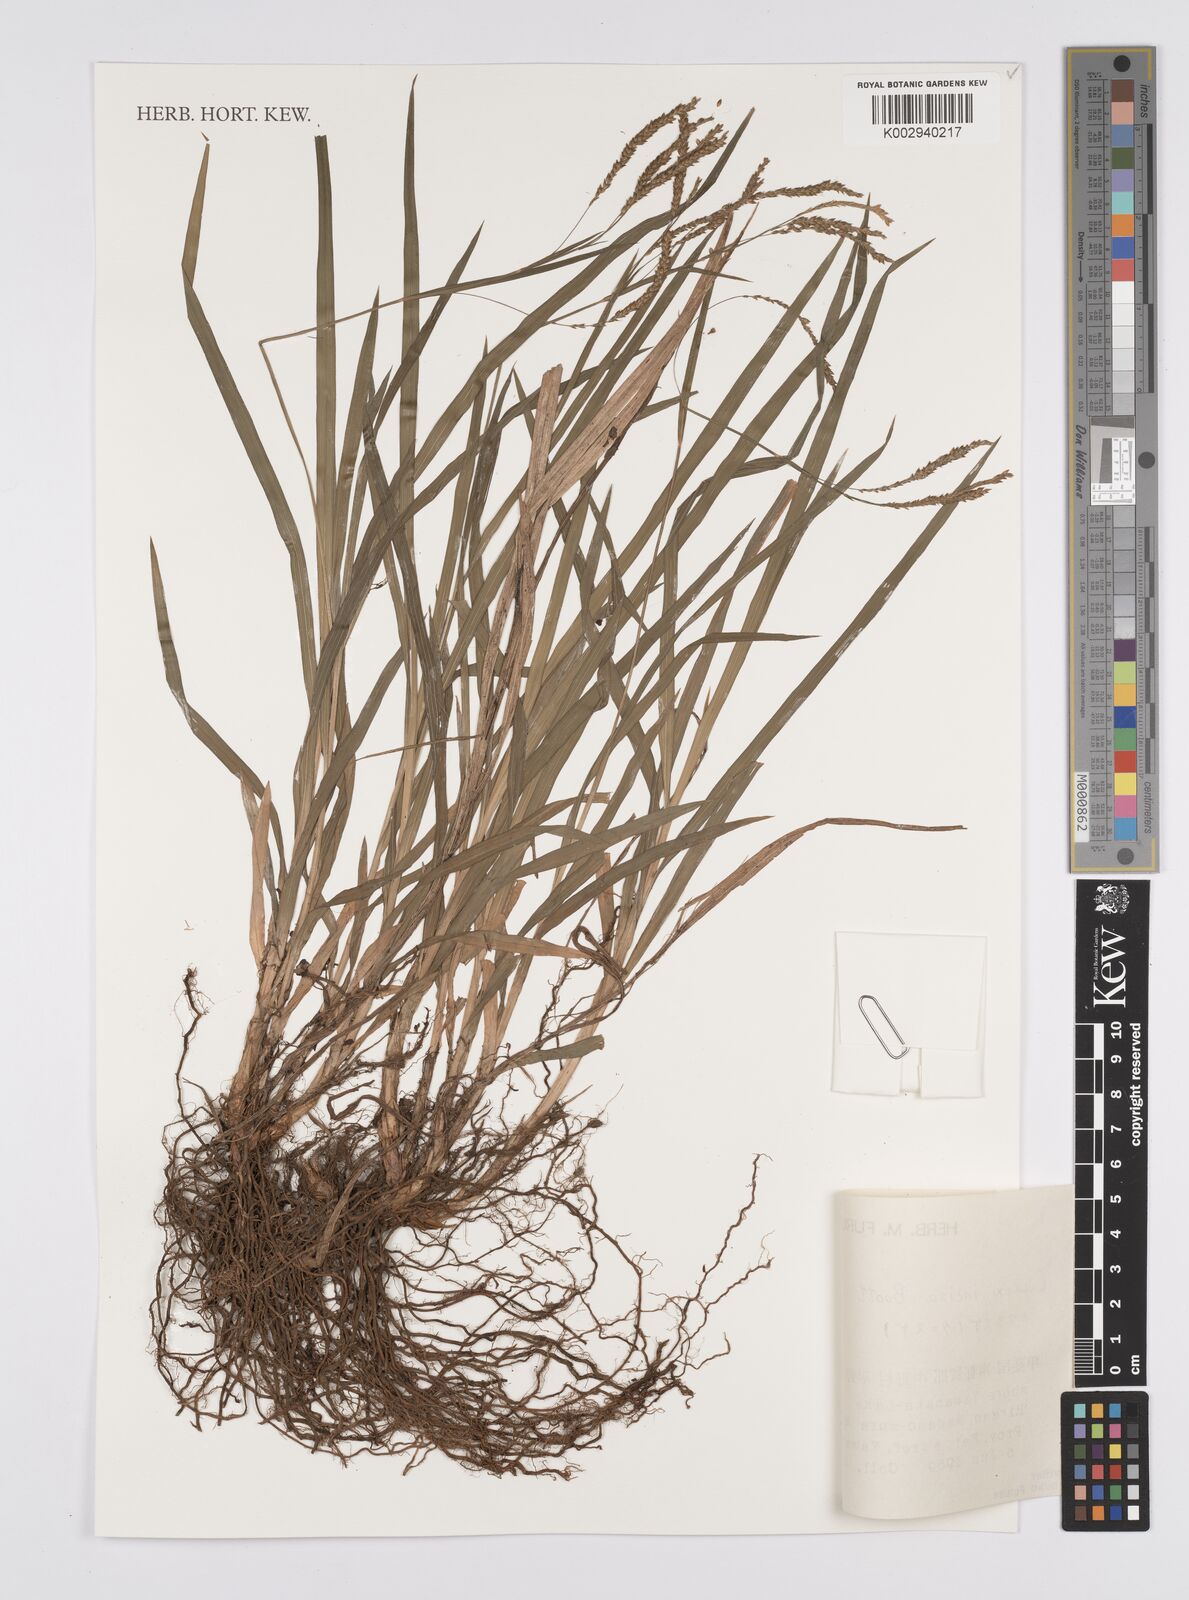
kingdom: Plantae
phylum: Tracheophyta
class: Liliopsida
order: Poales
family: Cyperaceae
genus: Carex
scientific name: Carex incisa
